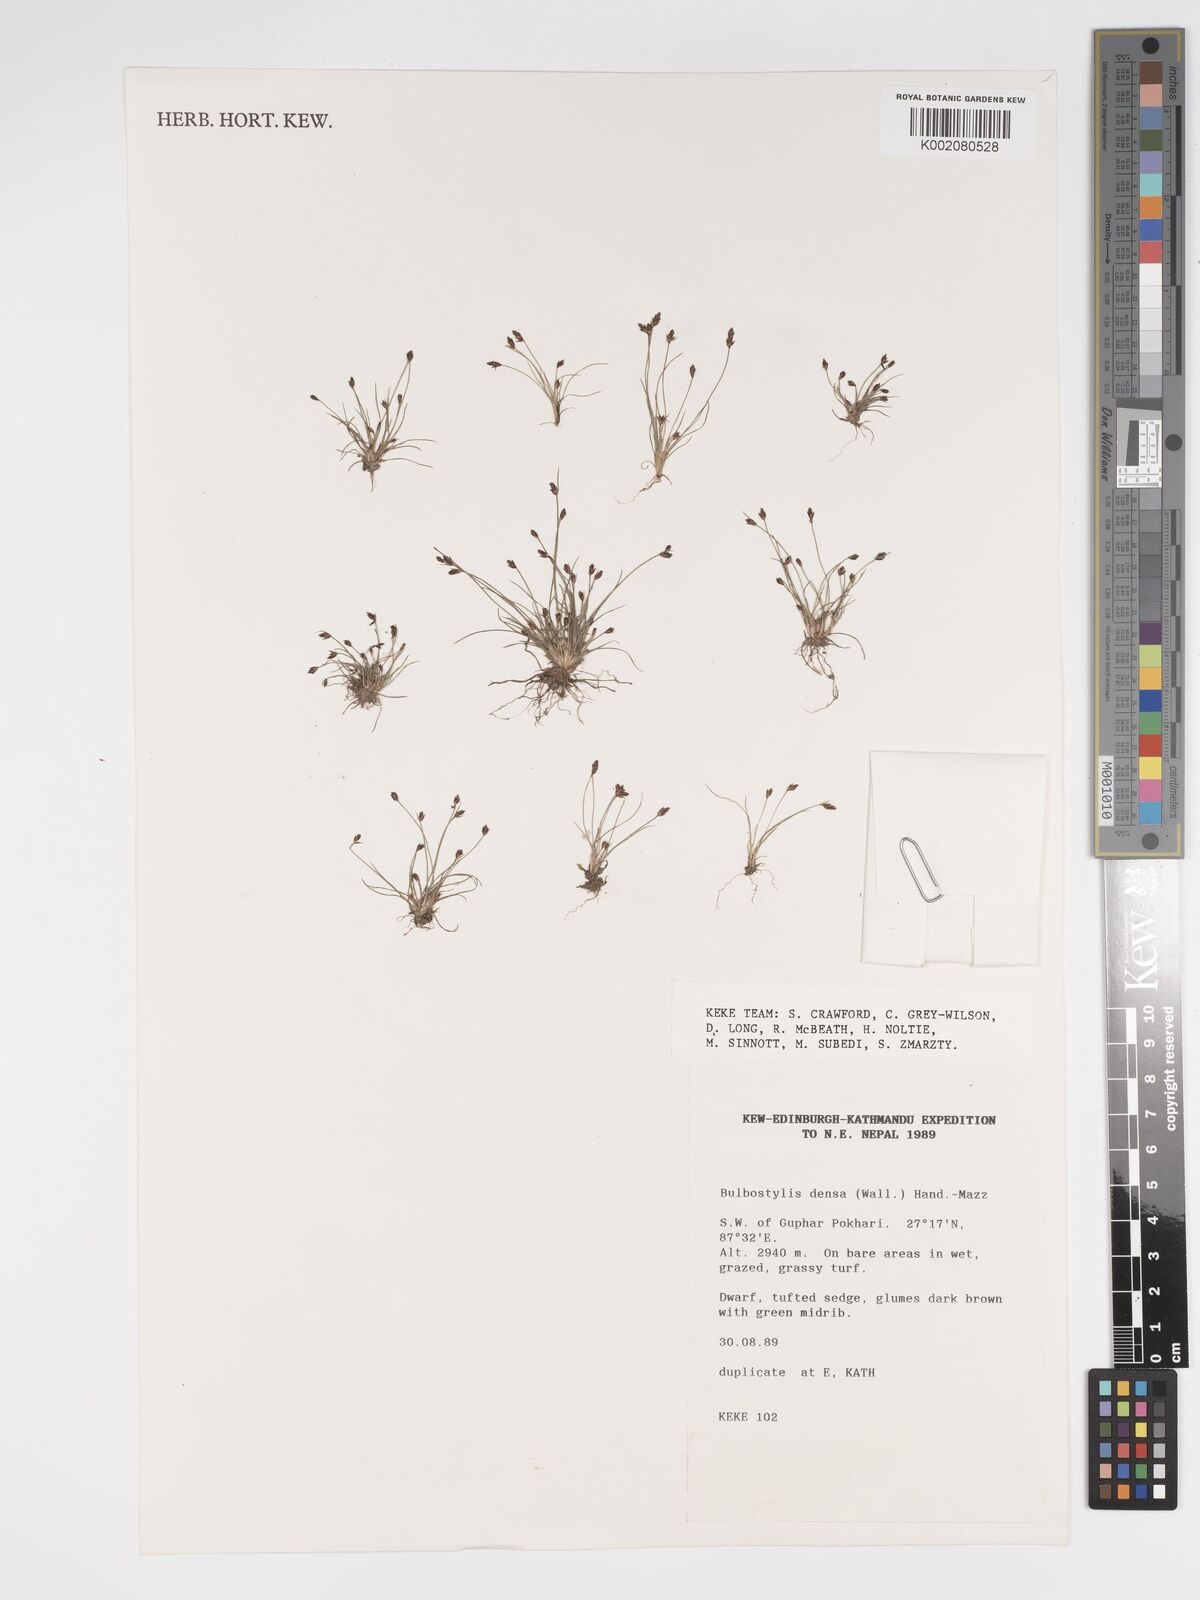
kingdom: Plantae
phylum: Tracheophyta
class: Liliopsida
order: Poales
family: Cyperaceae
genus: Bulbostylis
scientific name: Bulbostylis densa
